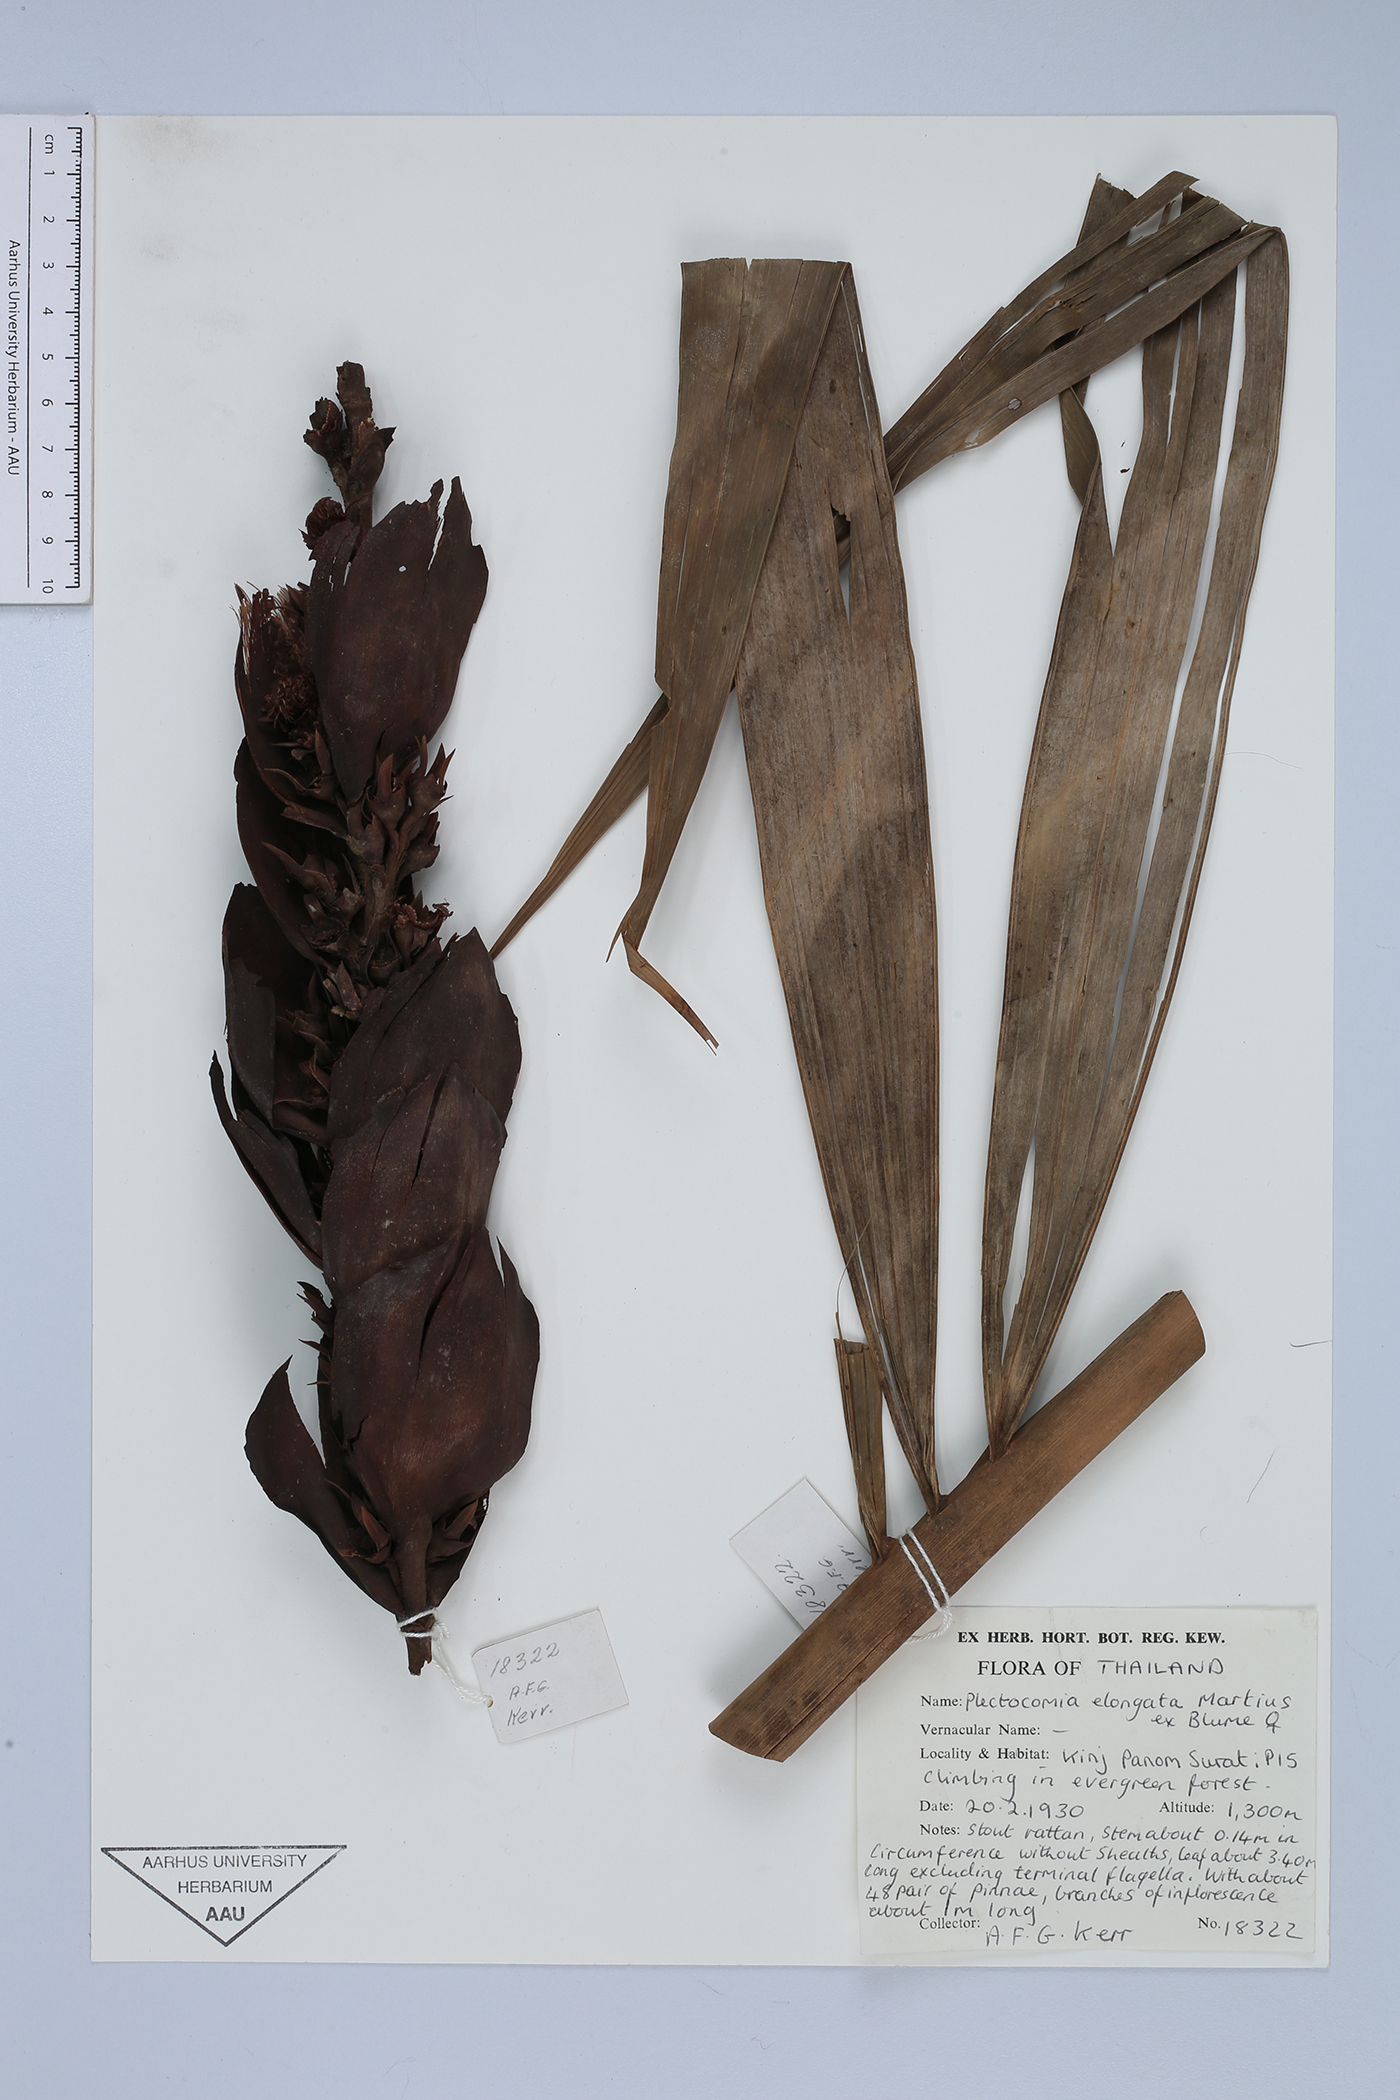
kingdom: Plantae
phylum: Tracheophyta
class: Liliopsida
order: Arecales
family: Arecaceae
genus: Plectocomia
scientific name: Plectocomia elongata
